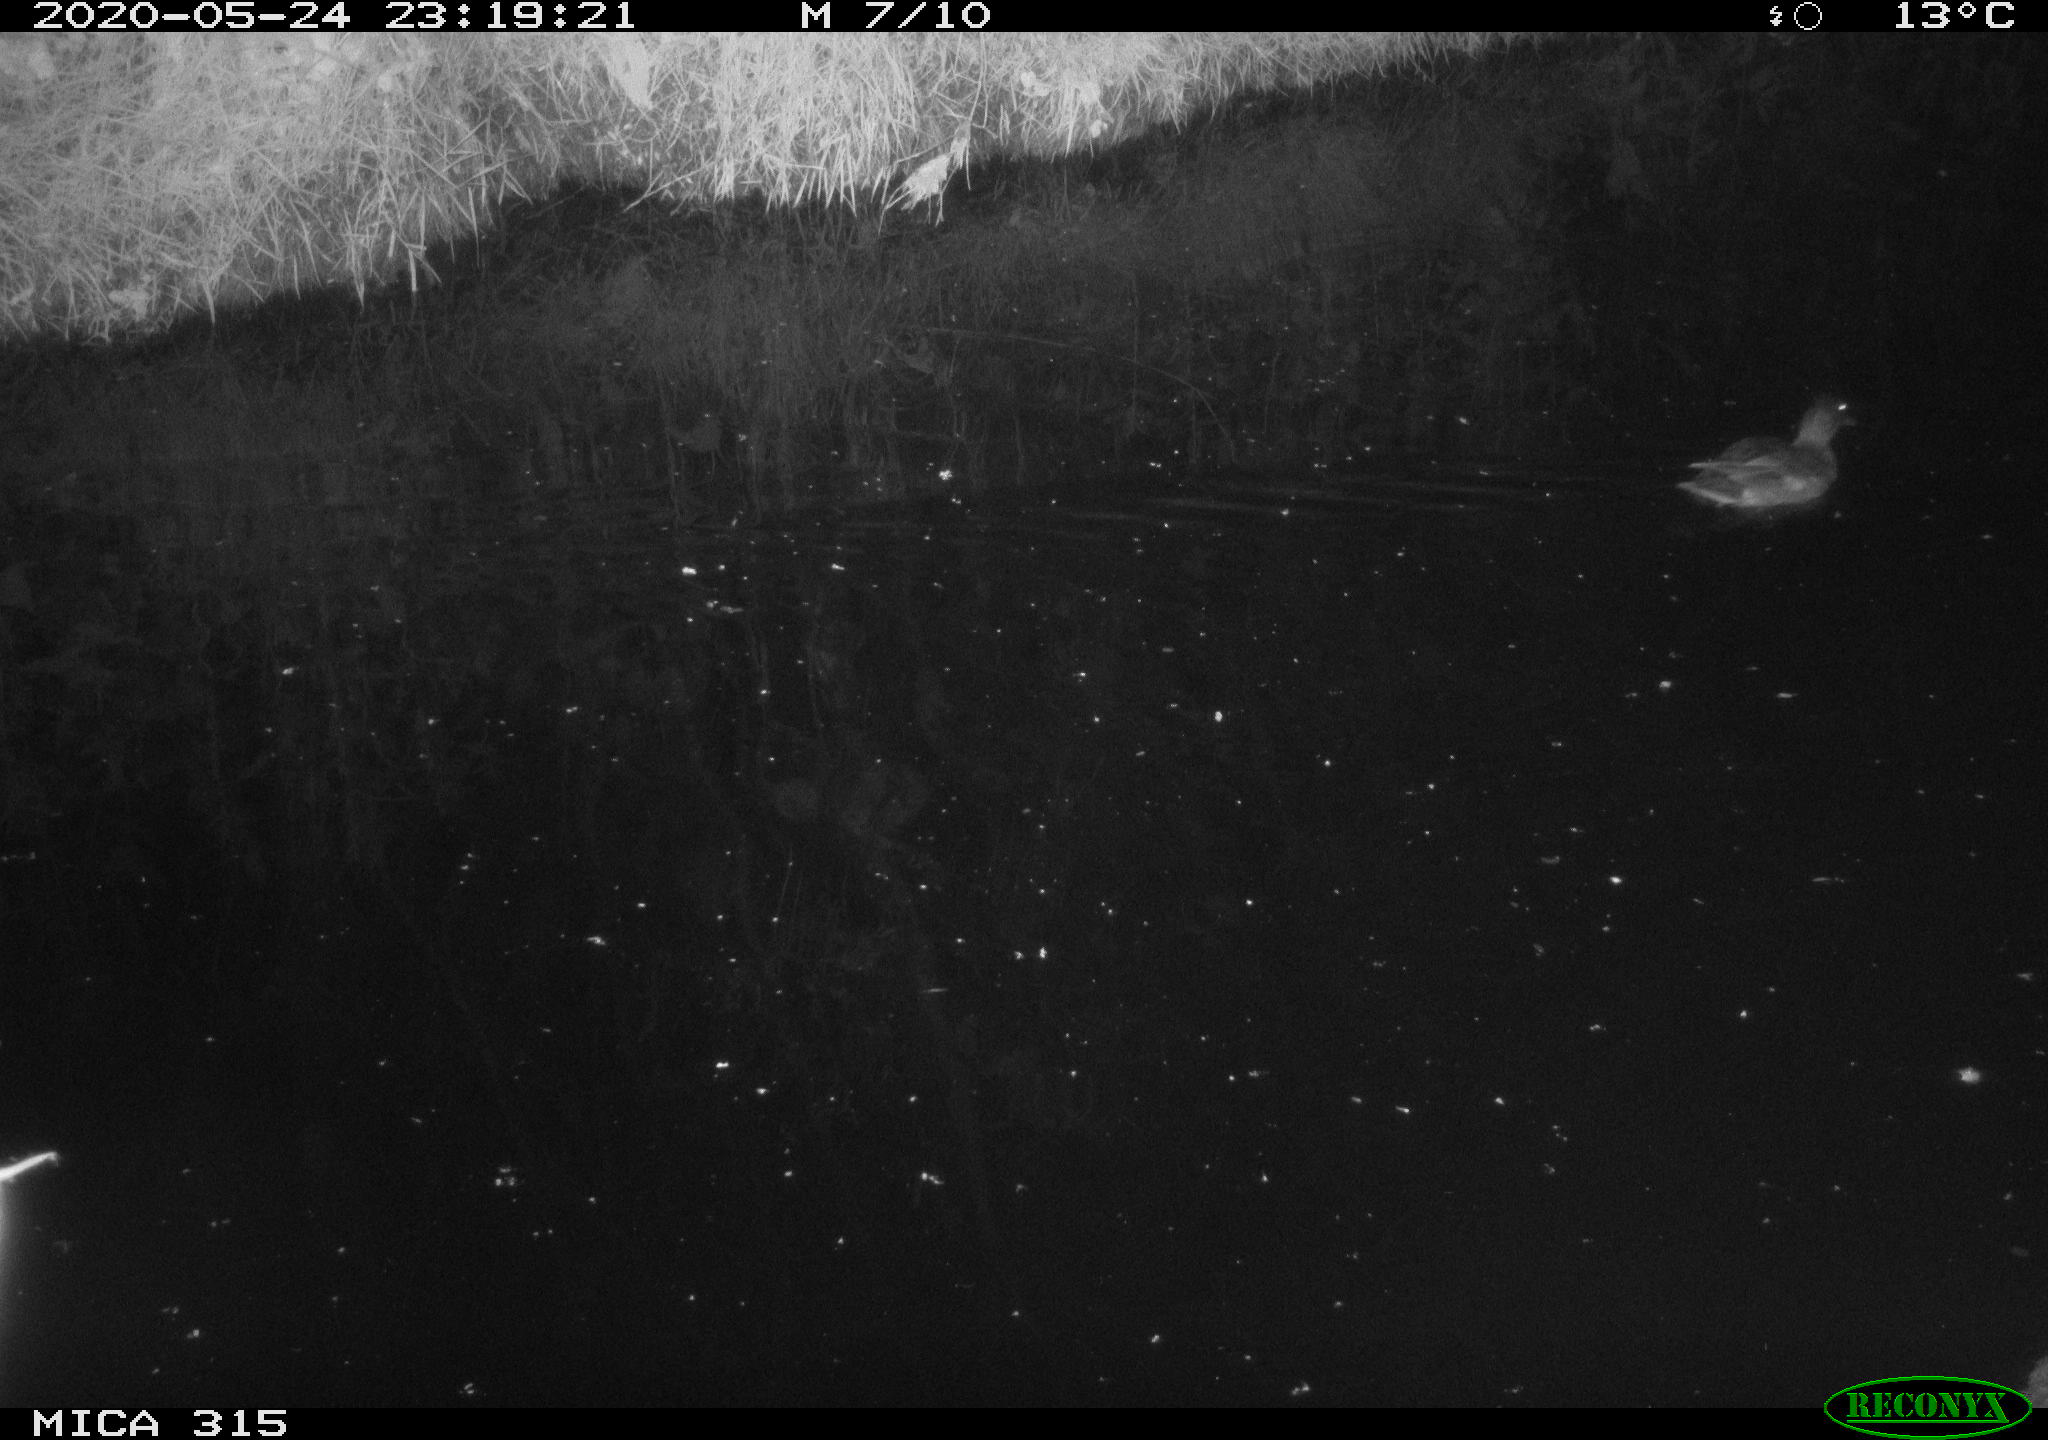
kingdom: Animalia
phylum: Chordata
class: Aves
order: Anseriformes
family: Anatidae
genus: Anas
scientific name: Anas platyrhynchos
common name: Mallard
